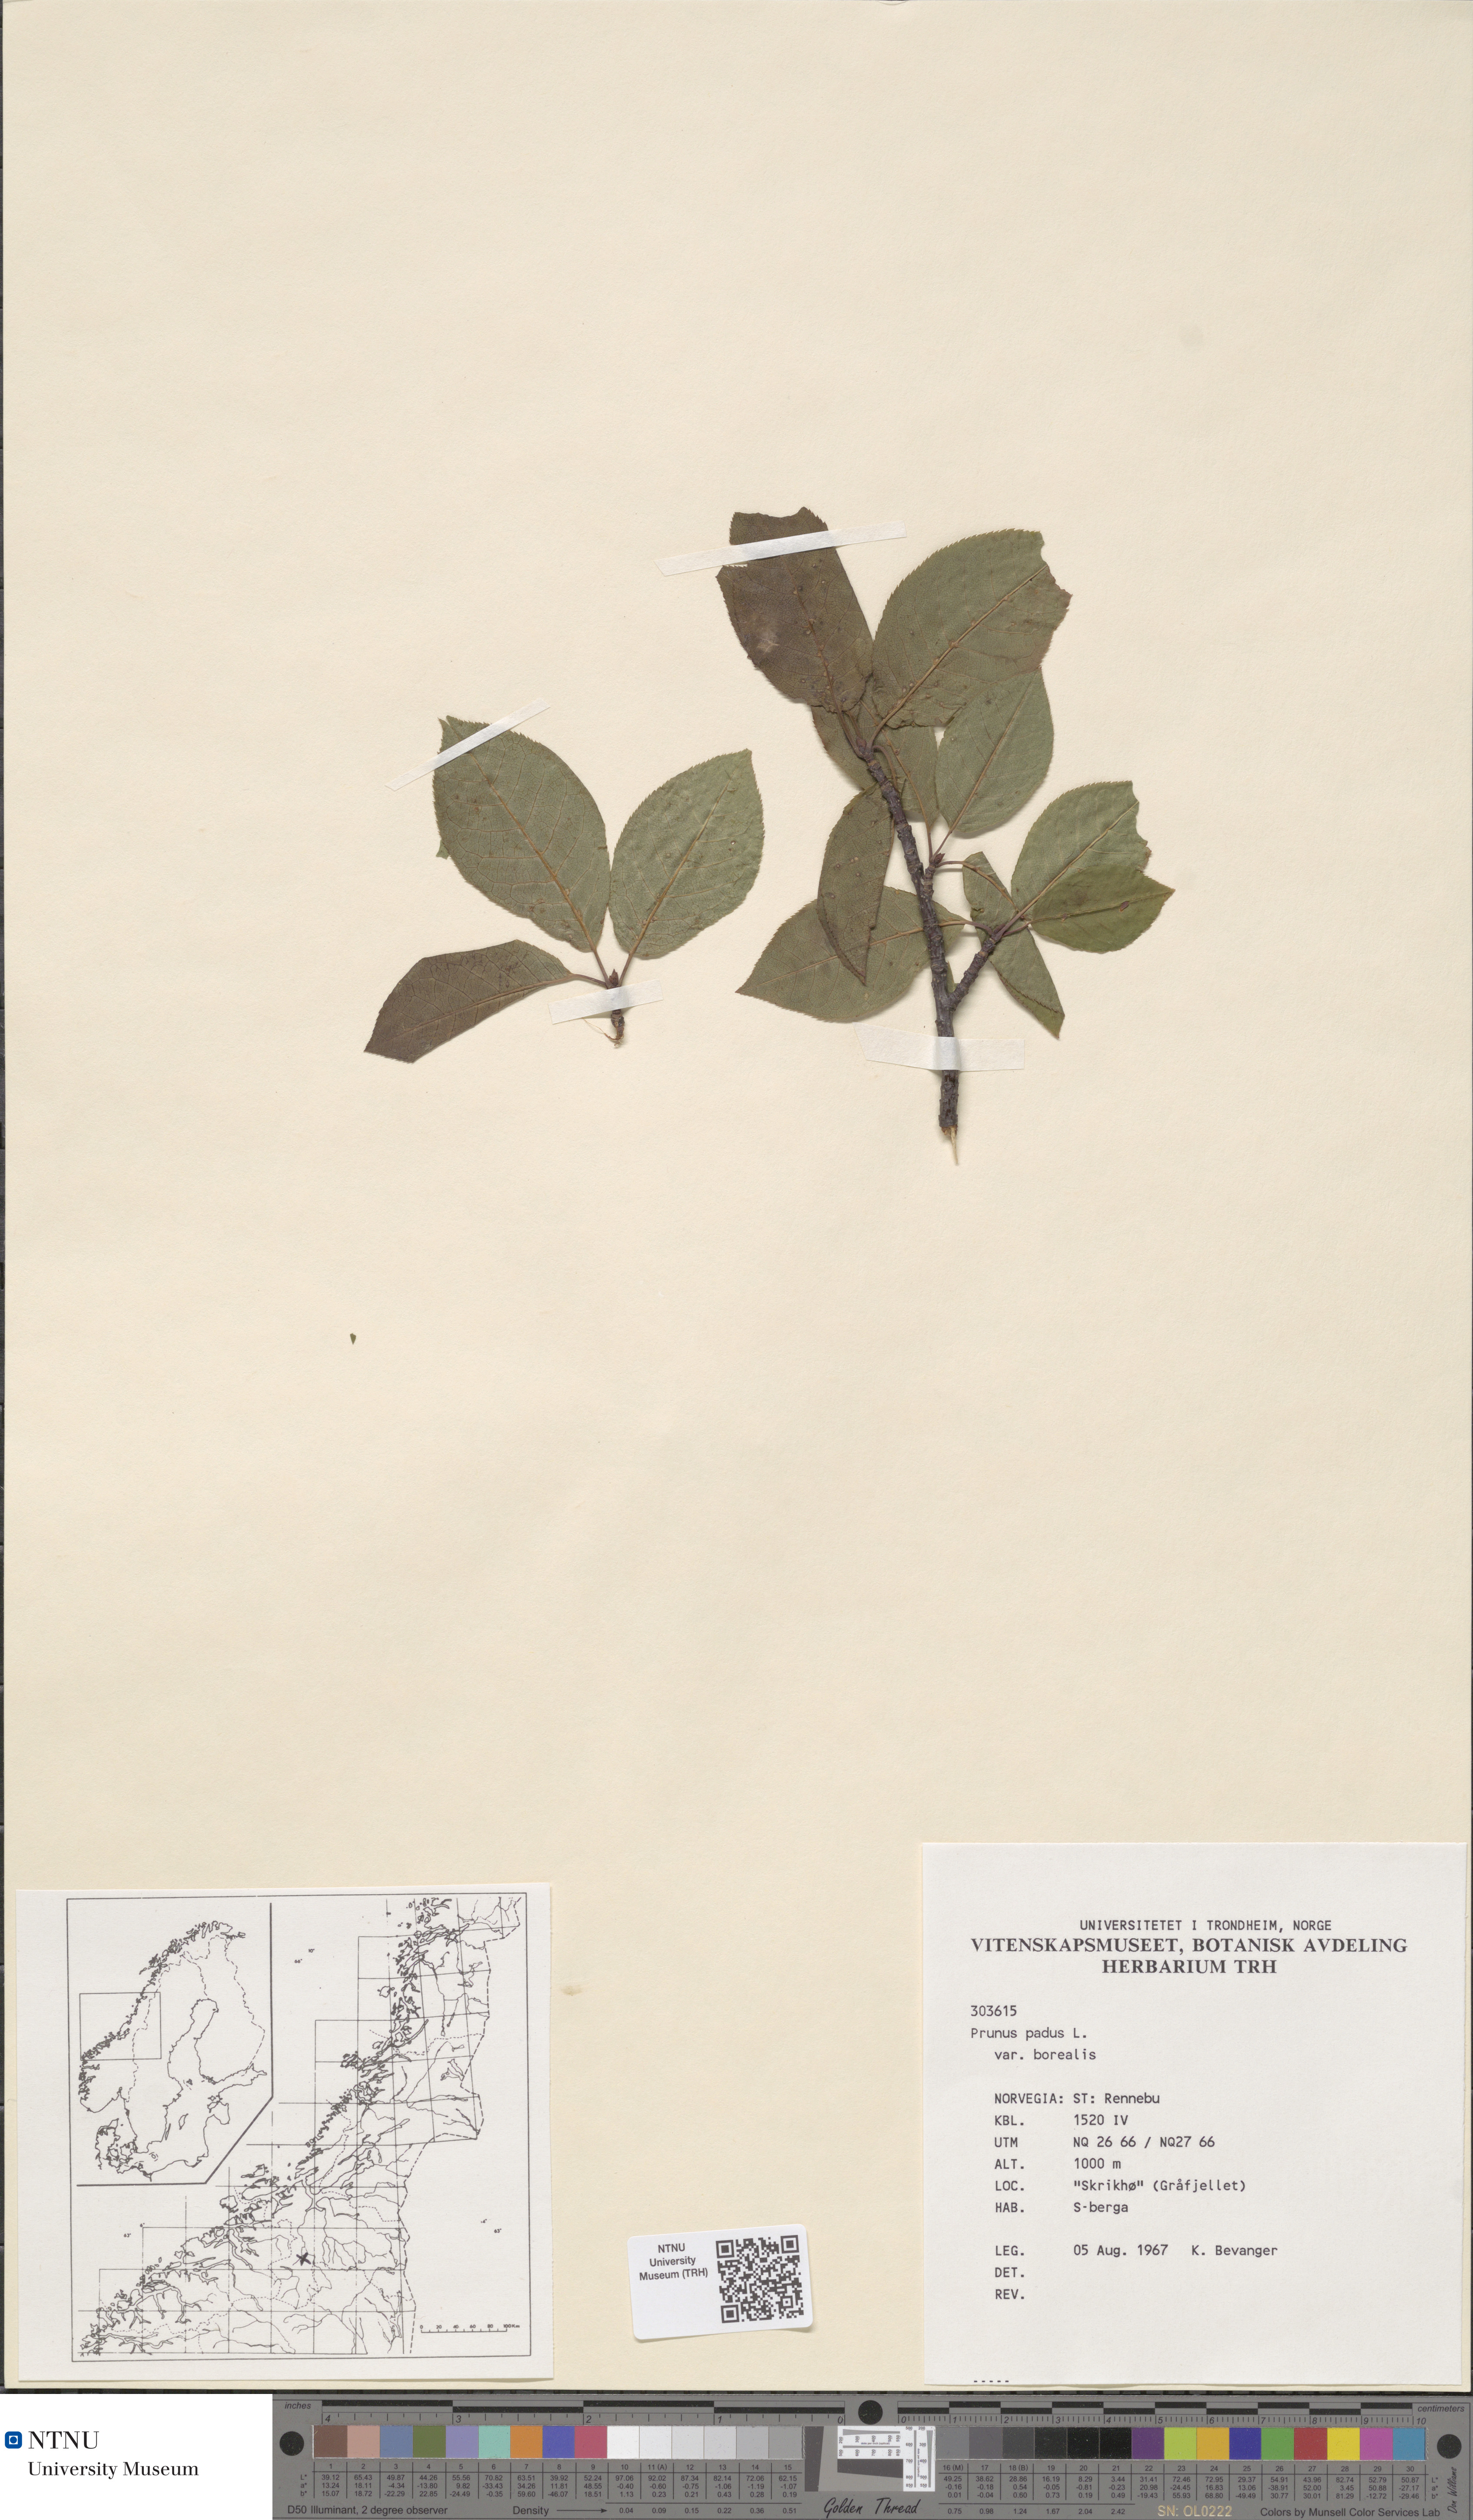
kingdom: Plantae
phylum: Tracheophyta
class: Magnoliopsida
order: Rosales
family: Rosaceae
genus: Prunus
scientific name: Prunus padus
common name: Bird cherry
